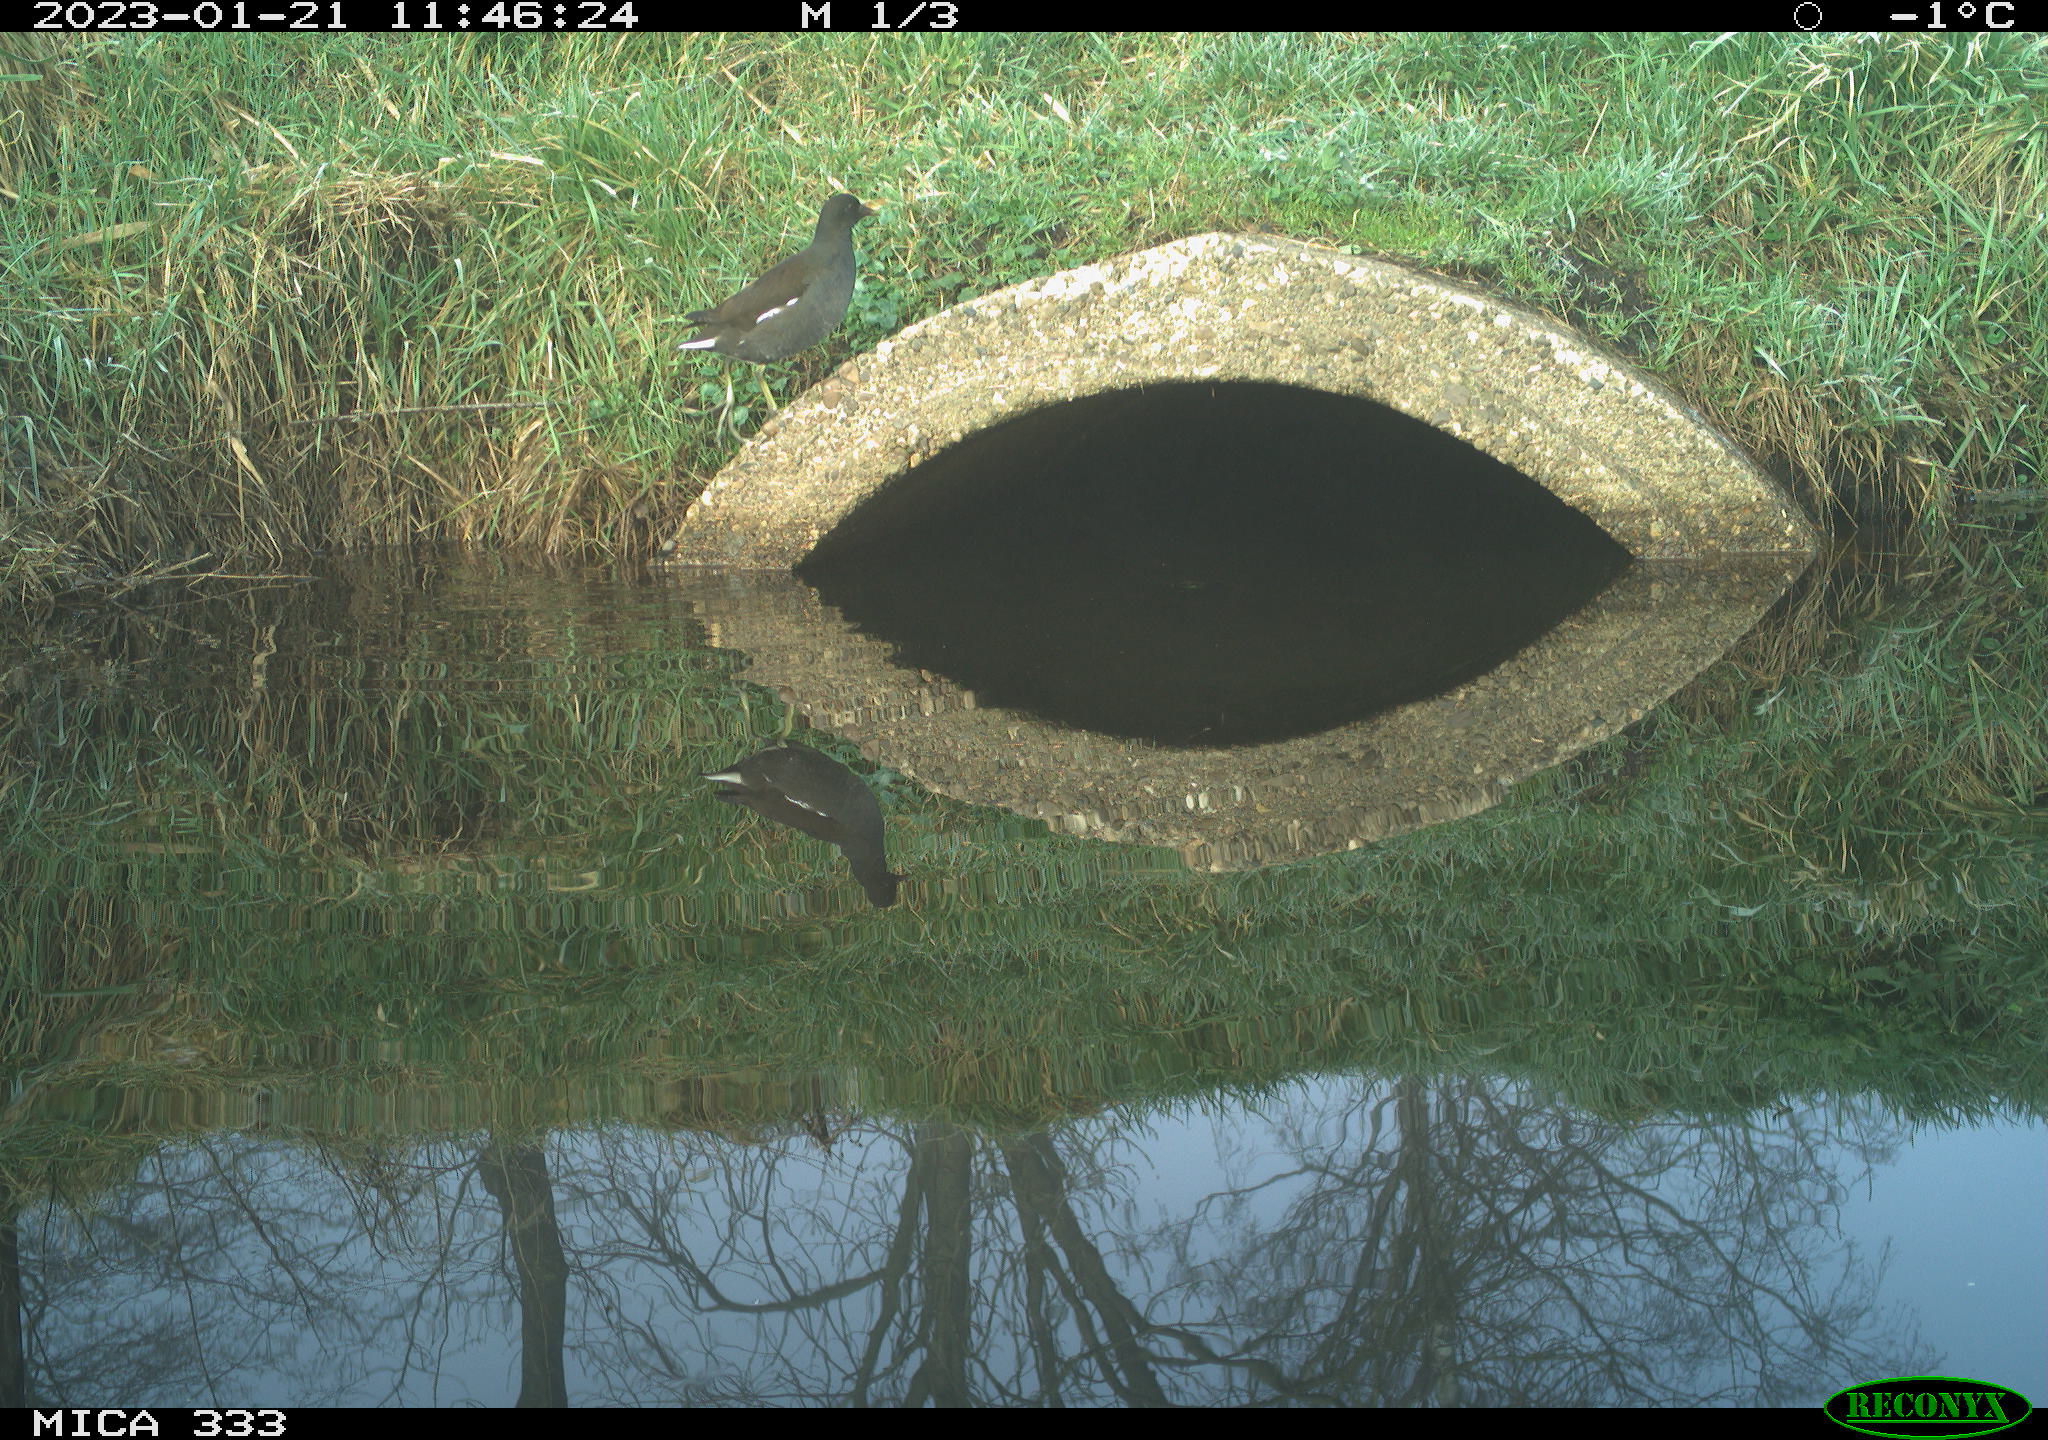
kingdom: Animalia
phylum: Chordata
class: Aves
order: Gruiformes
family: Rallidae
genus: Gallinula
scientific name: Gallinula chloropus
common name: Common moorhen
